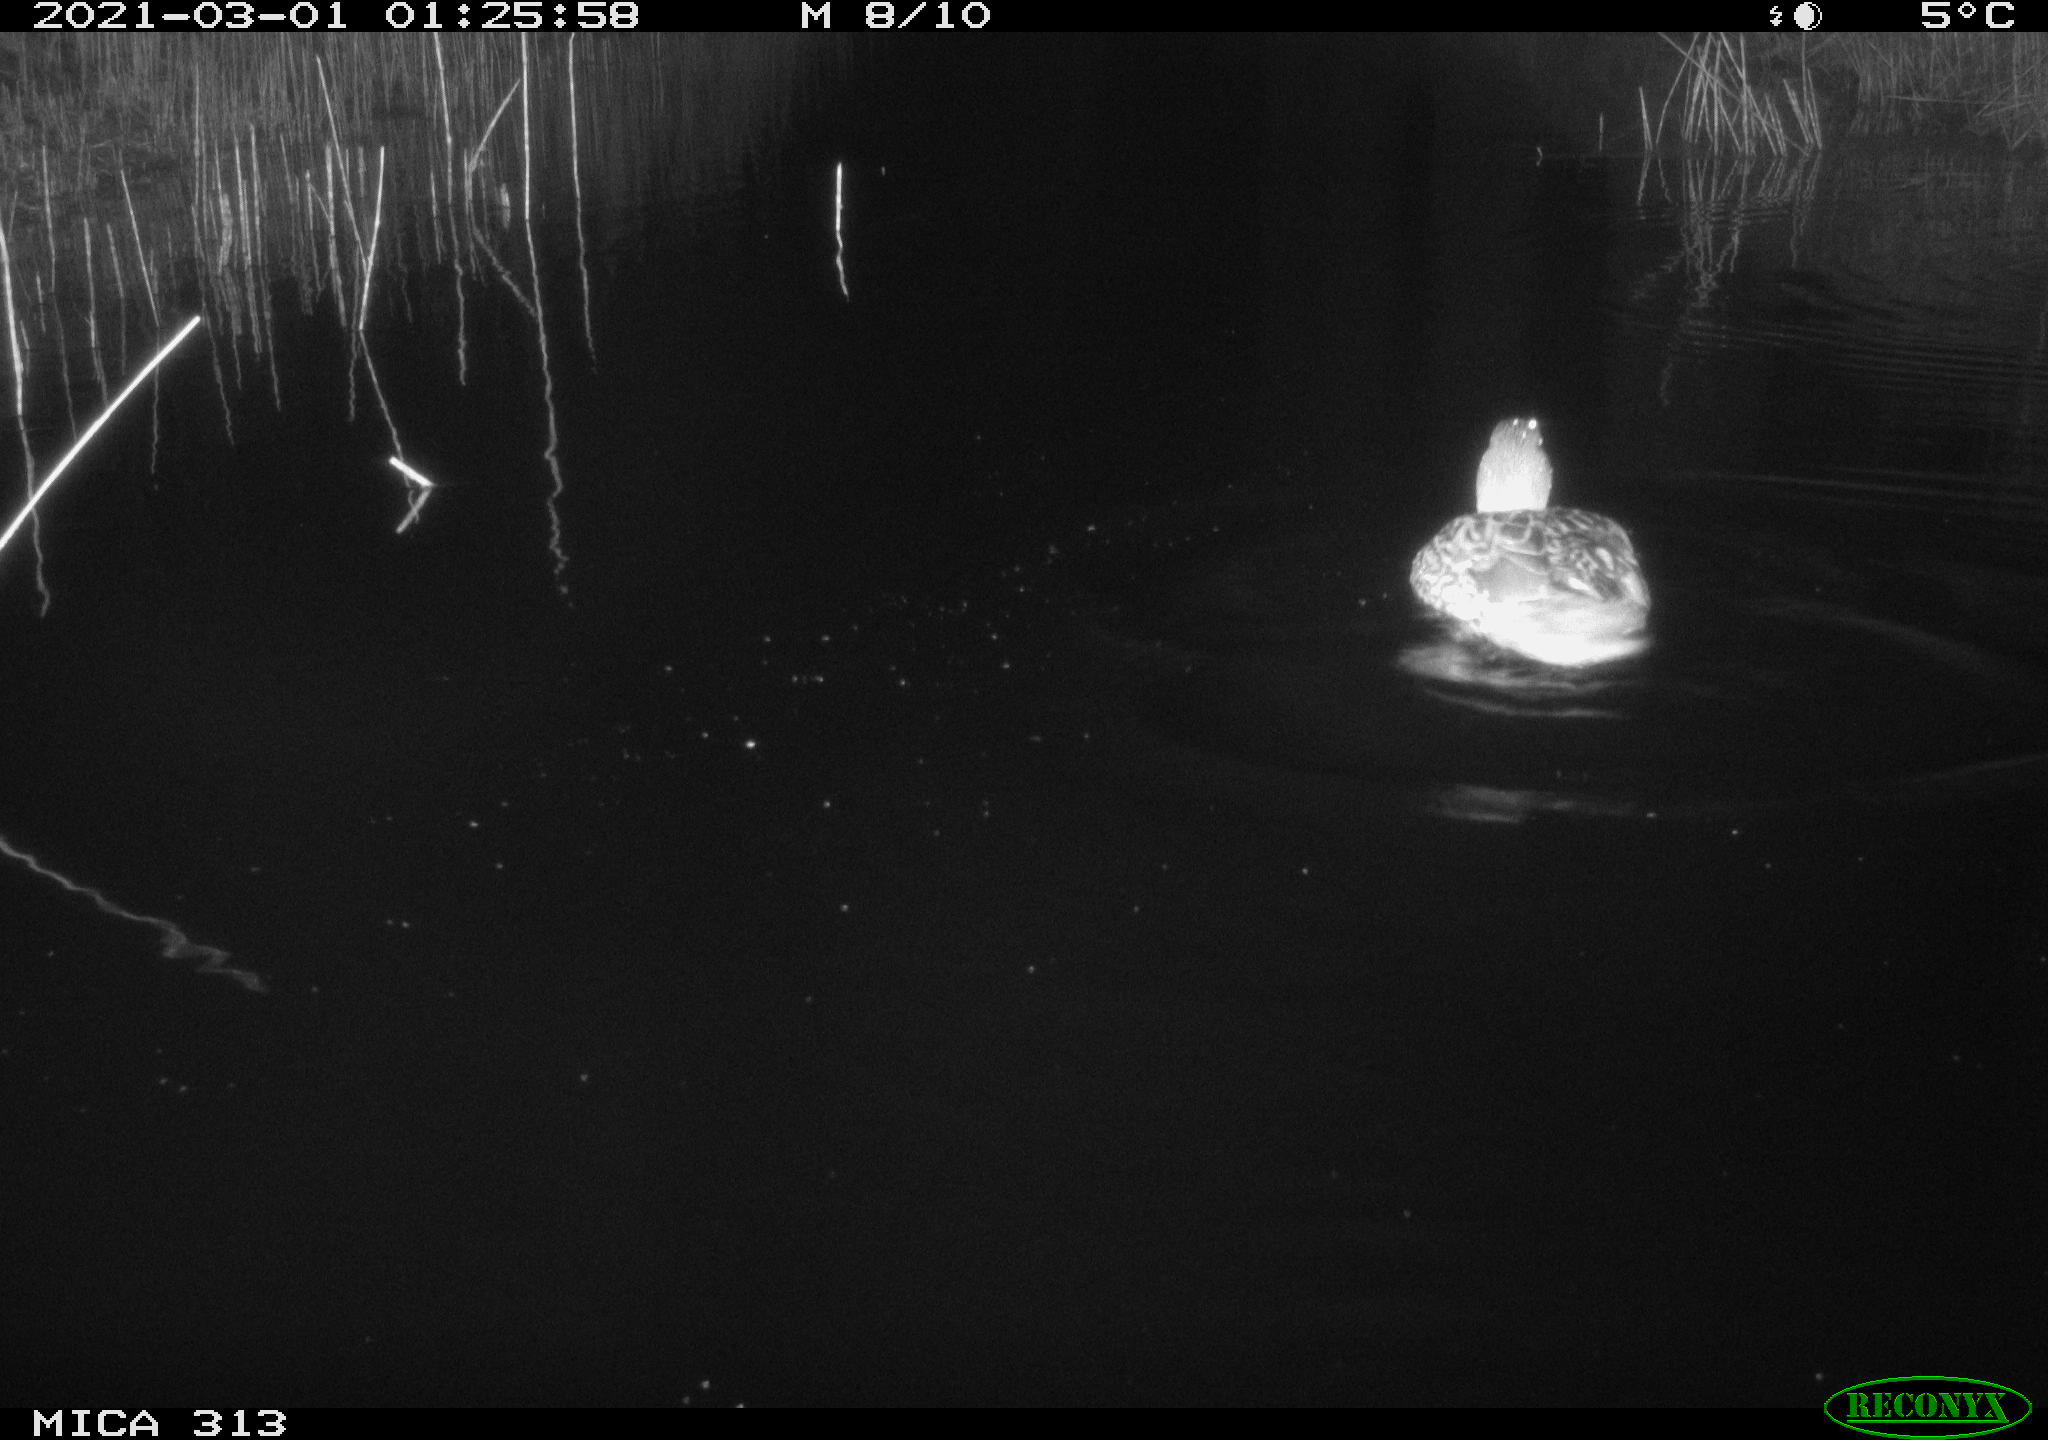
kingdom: Animalia
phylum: Chordata
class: Aves
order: Anseriformes
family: Anatidae
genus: Anas
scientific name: Anas
